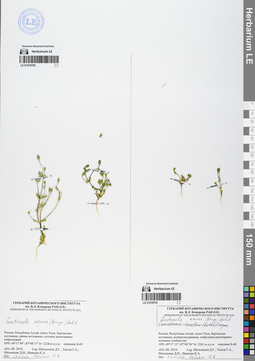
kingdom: Plantae
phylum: Tracheophyta
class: Magnoliopsida
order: Gentianales
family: Gentianaceae
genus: Gentianella
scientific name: Gentianella azurea
